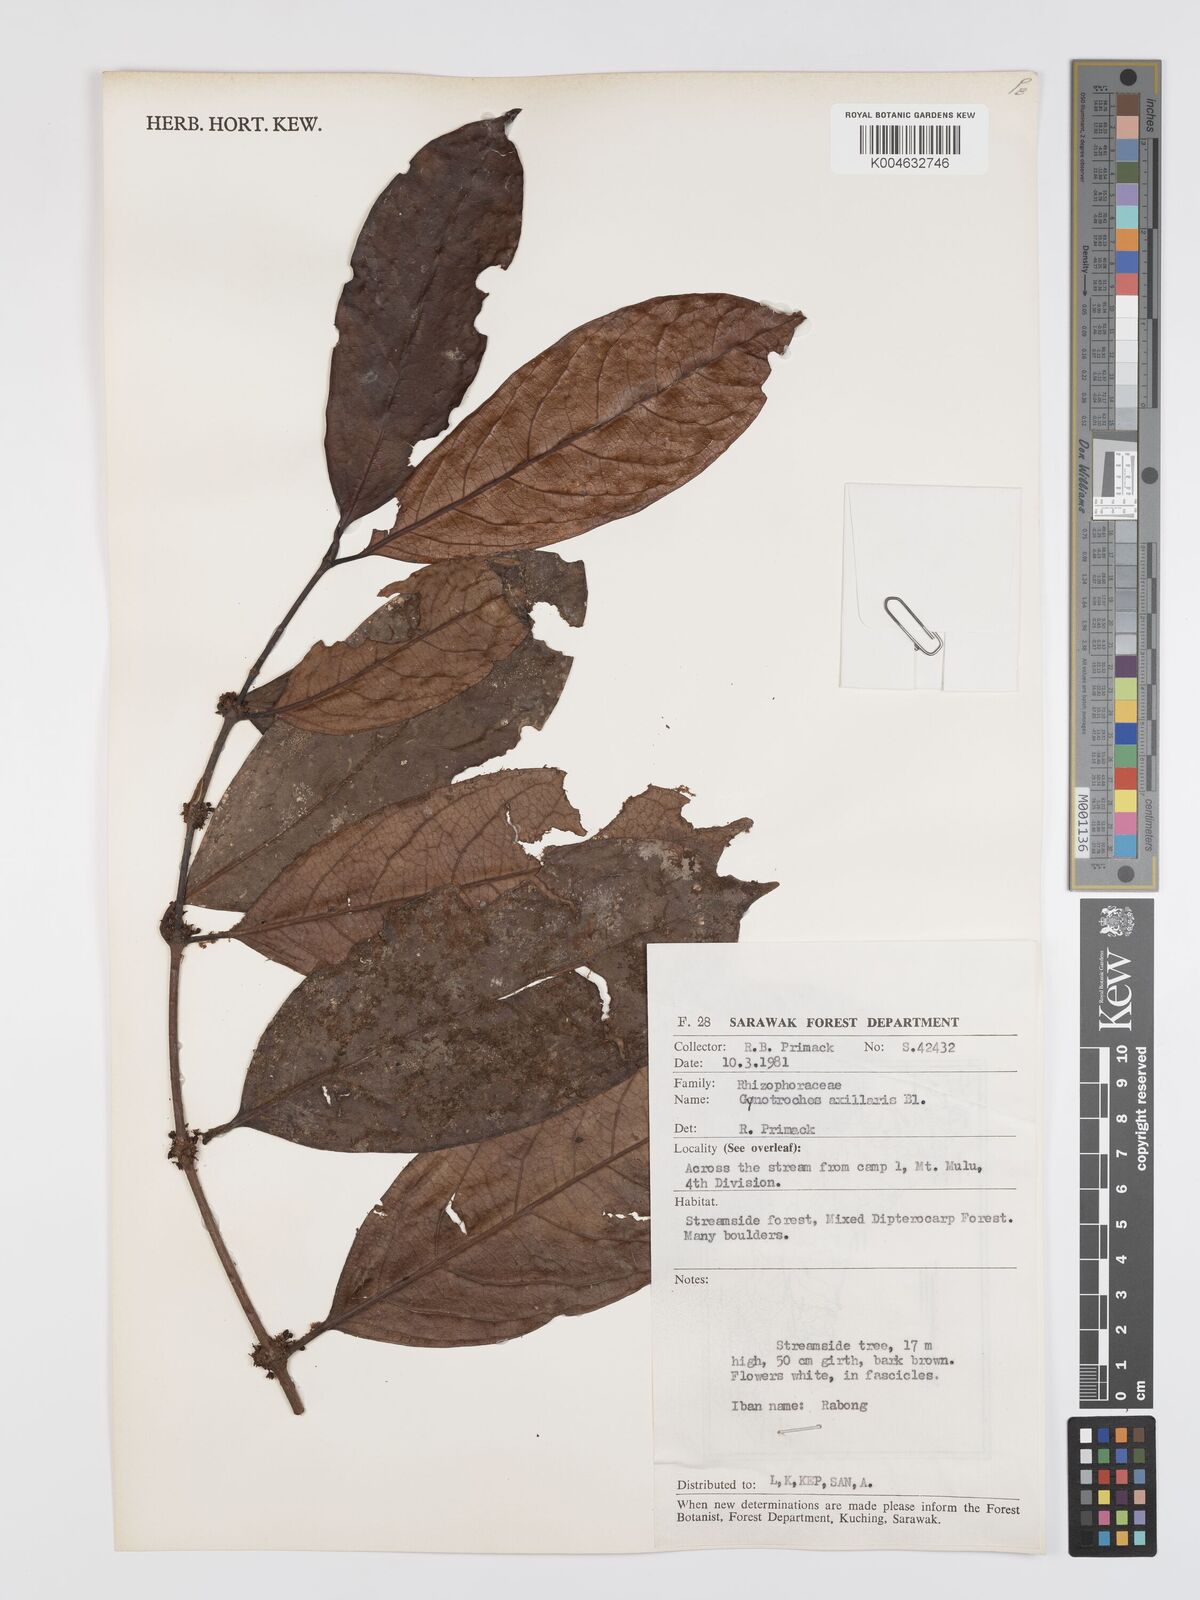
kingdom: Plantae
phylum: Tracheophyta
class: Magnoliopsida
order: Malpighiales
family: Rhizophoraceae
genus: Gynotroches
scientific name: Gynotroches axillaris
